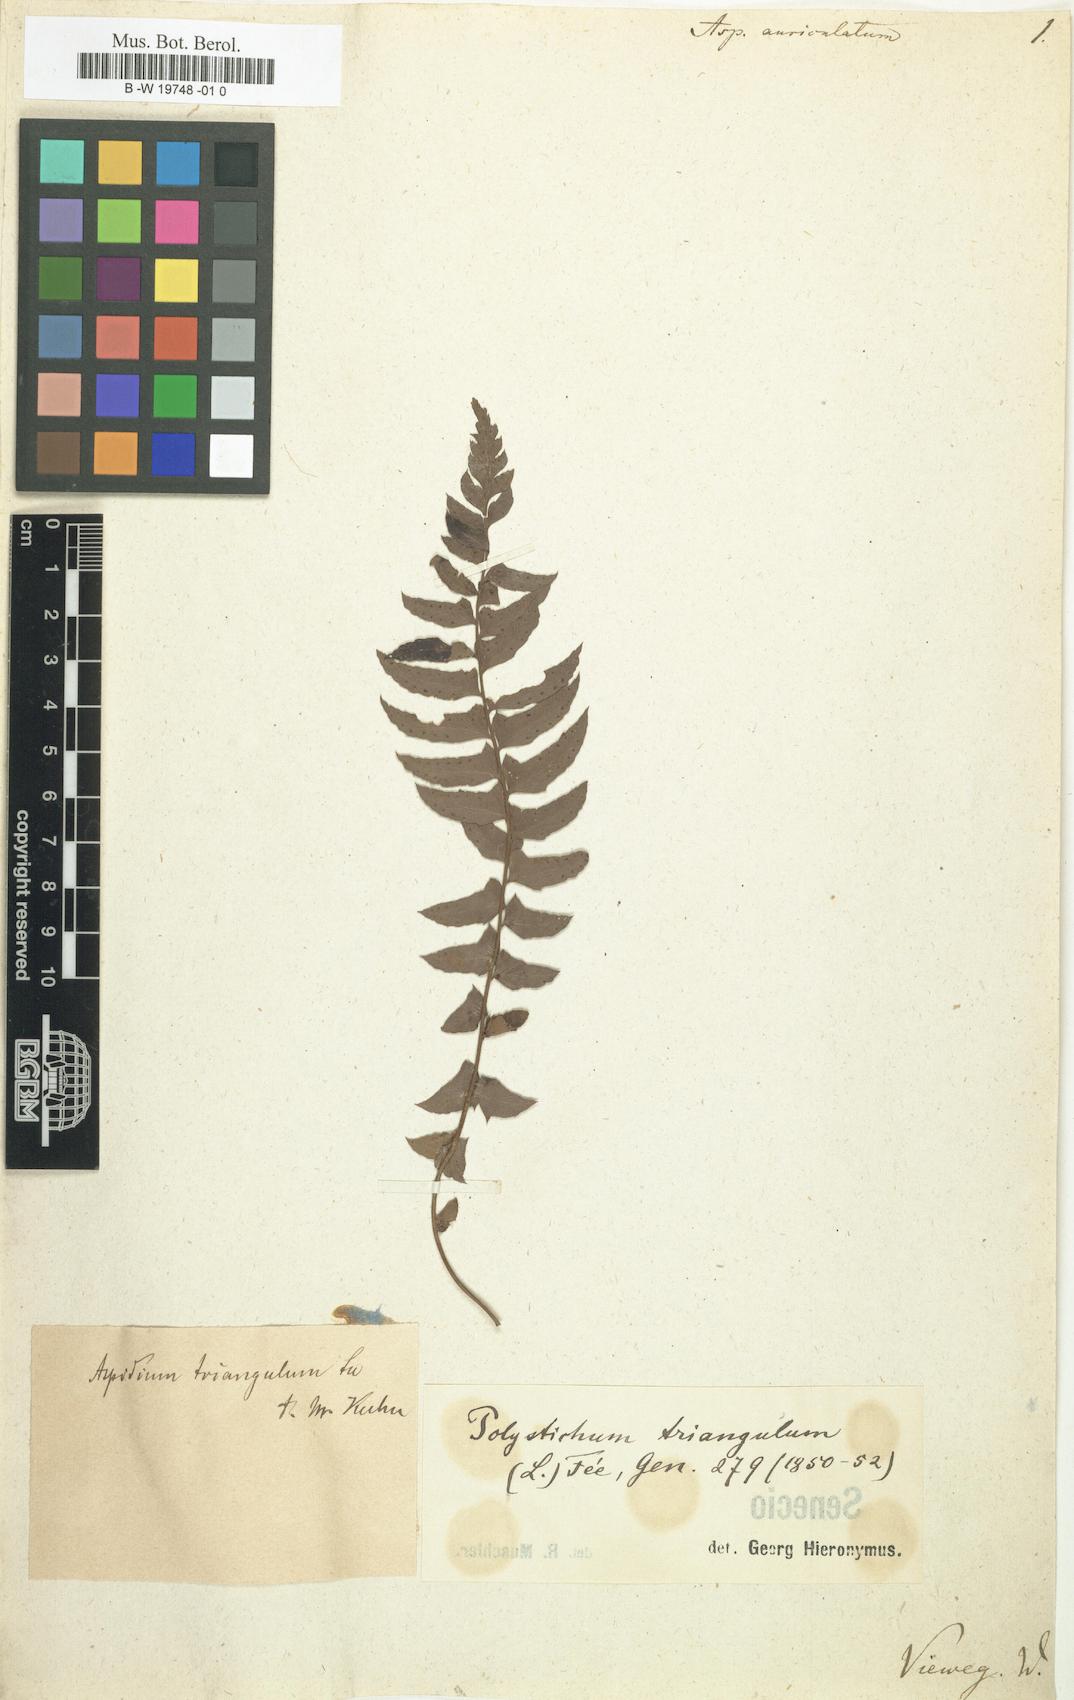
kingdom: Plantae
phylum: Tracheophyta
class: Polypodiopsida
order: Polypodiales
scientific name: Polypodiales
